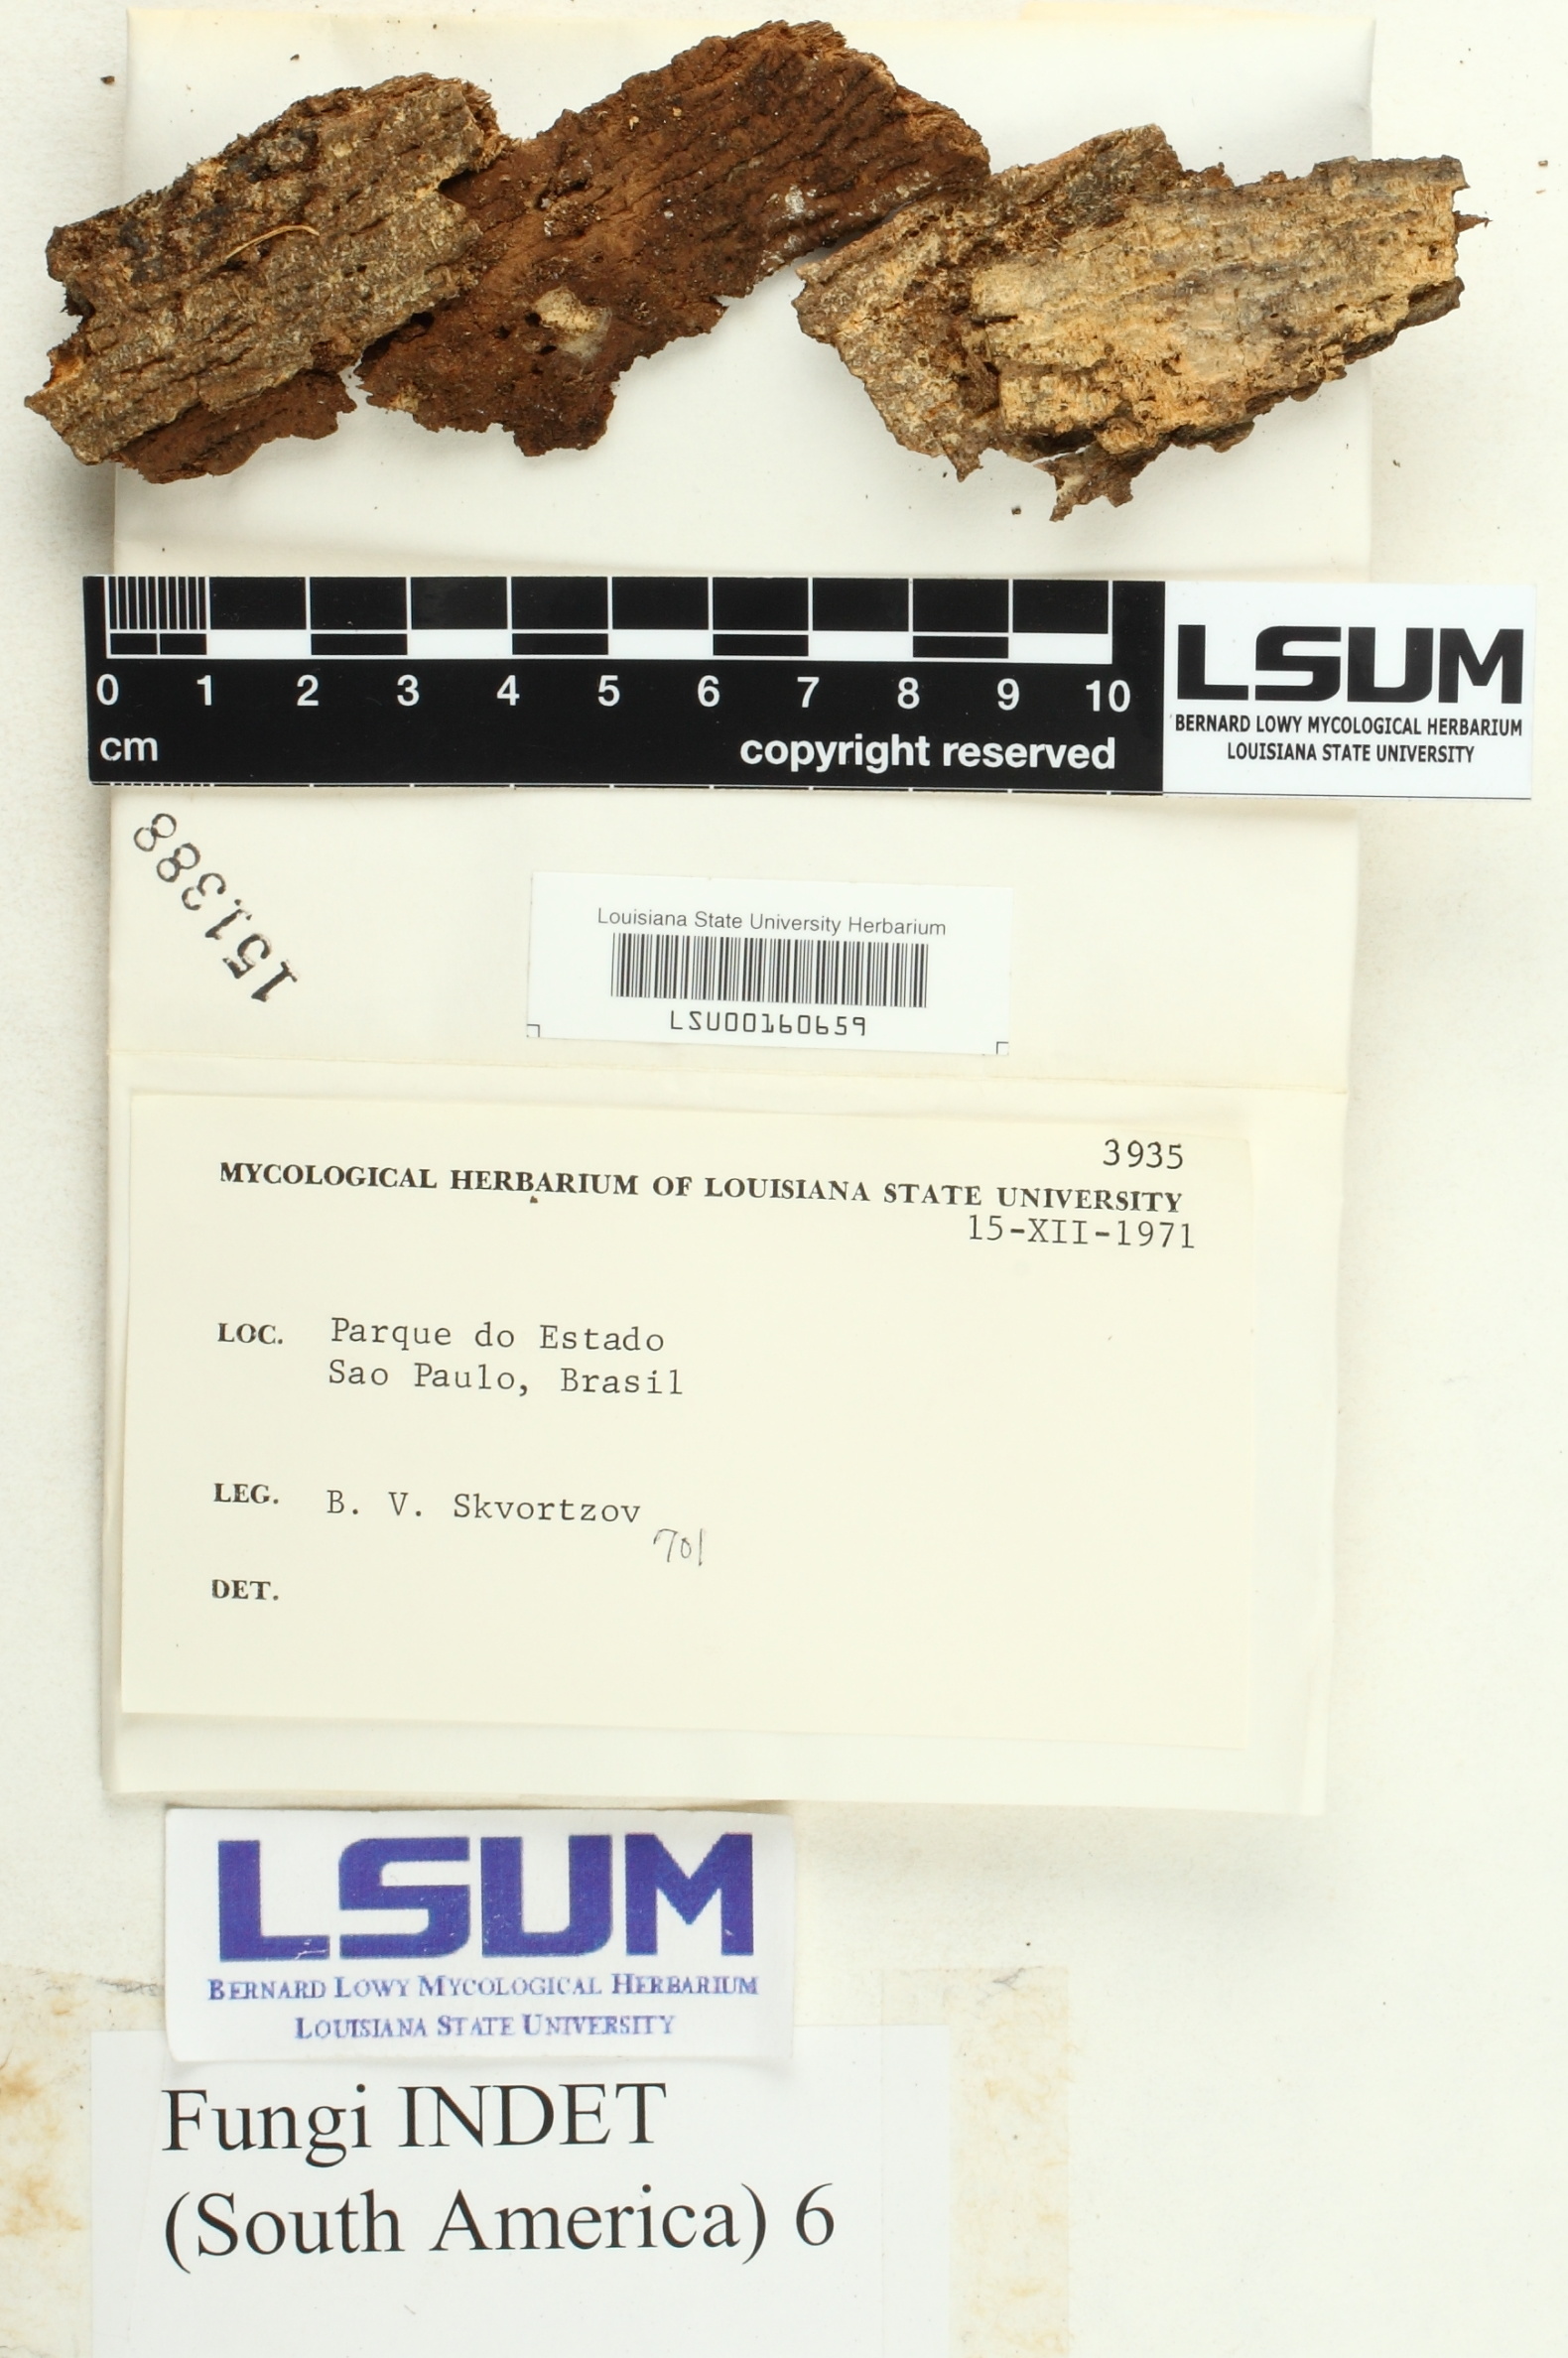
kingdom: Fungi
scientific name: Fungi
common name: Fungi
